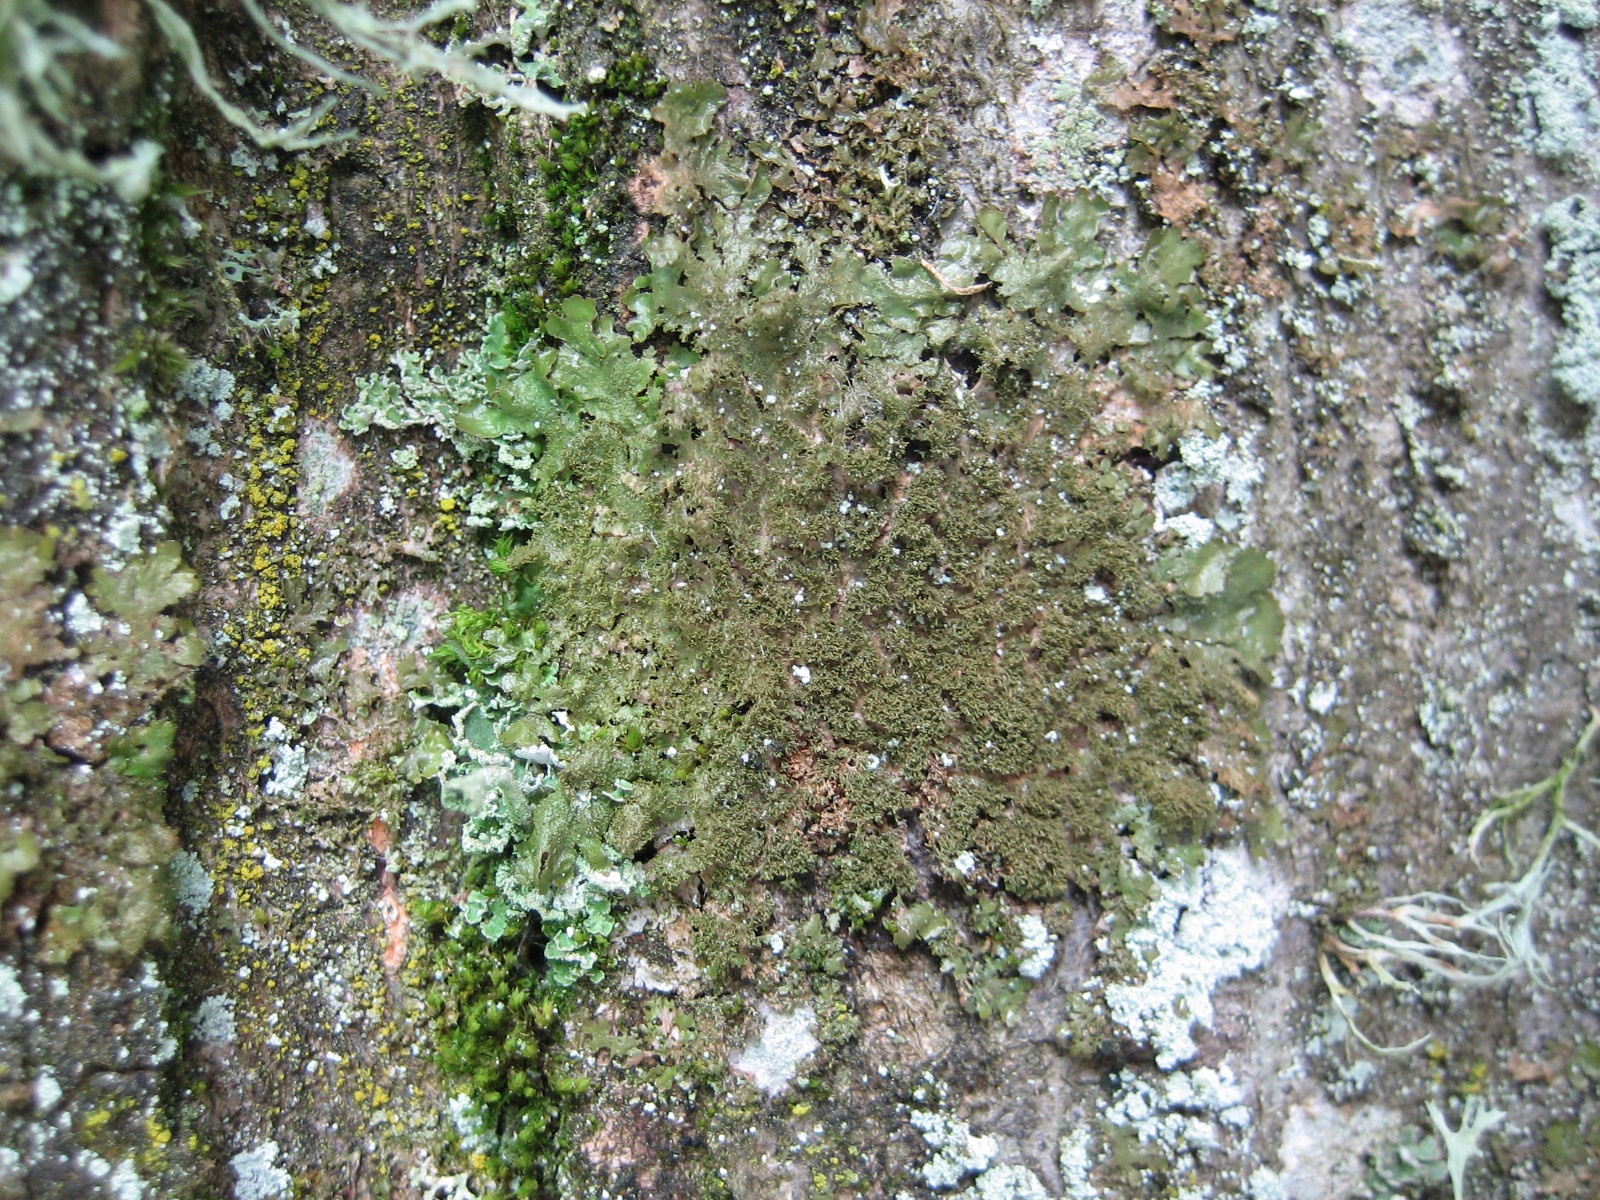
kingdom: Fungi
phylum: Ascomycota
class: Lecanoromycetes
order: Lecanorales
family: Parmeliaceae
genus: Melanohalea
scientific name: Melanohalea elegantula
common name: elegant skållav
